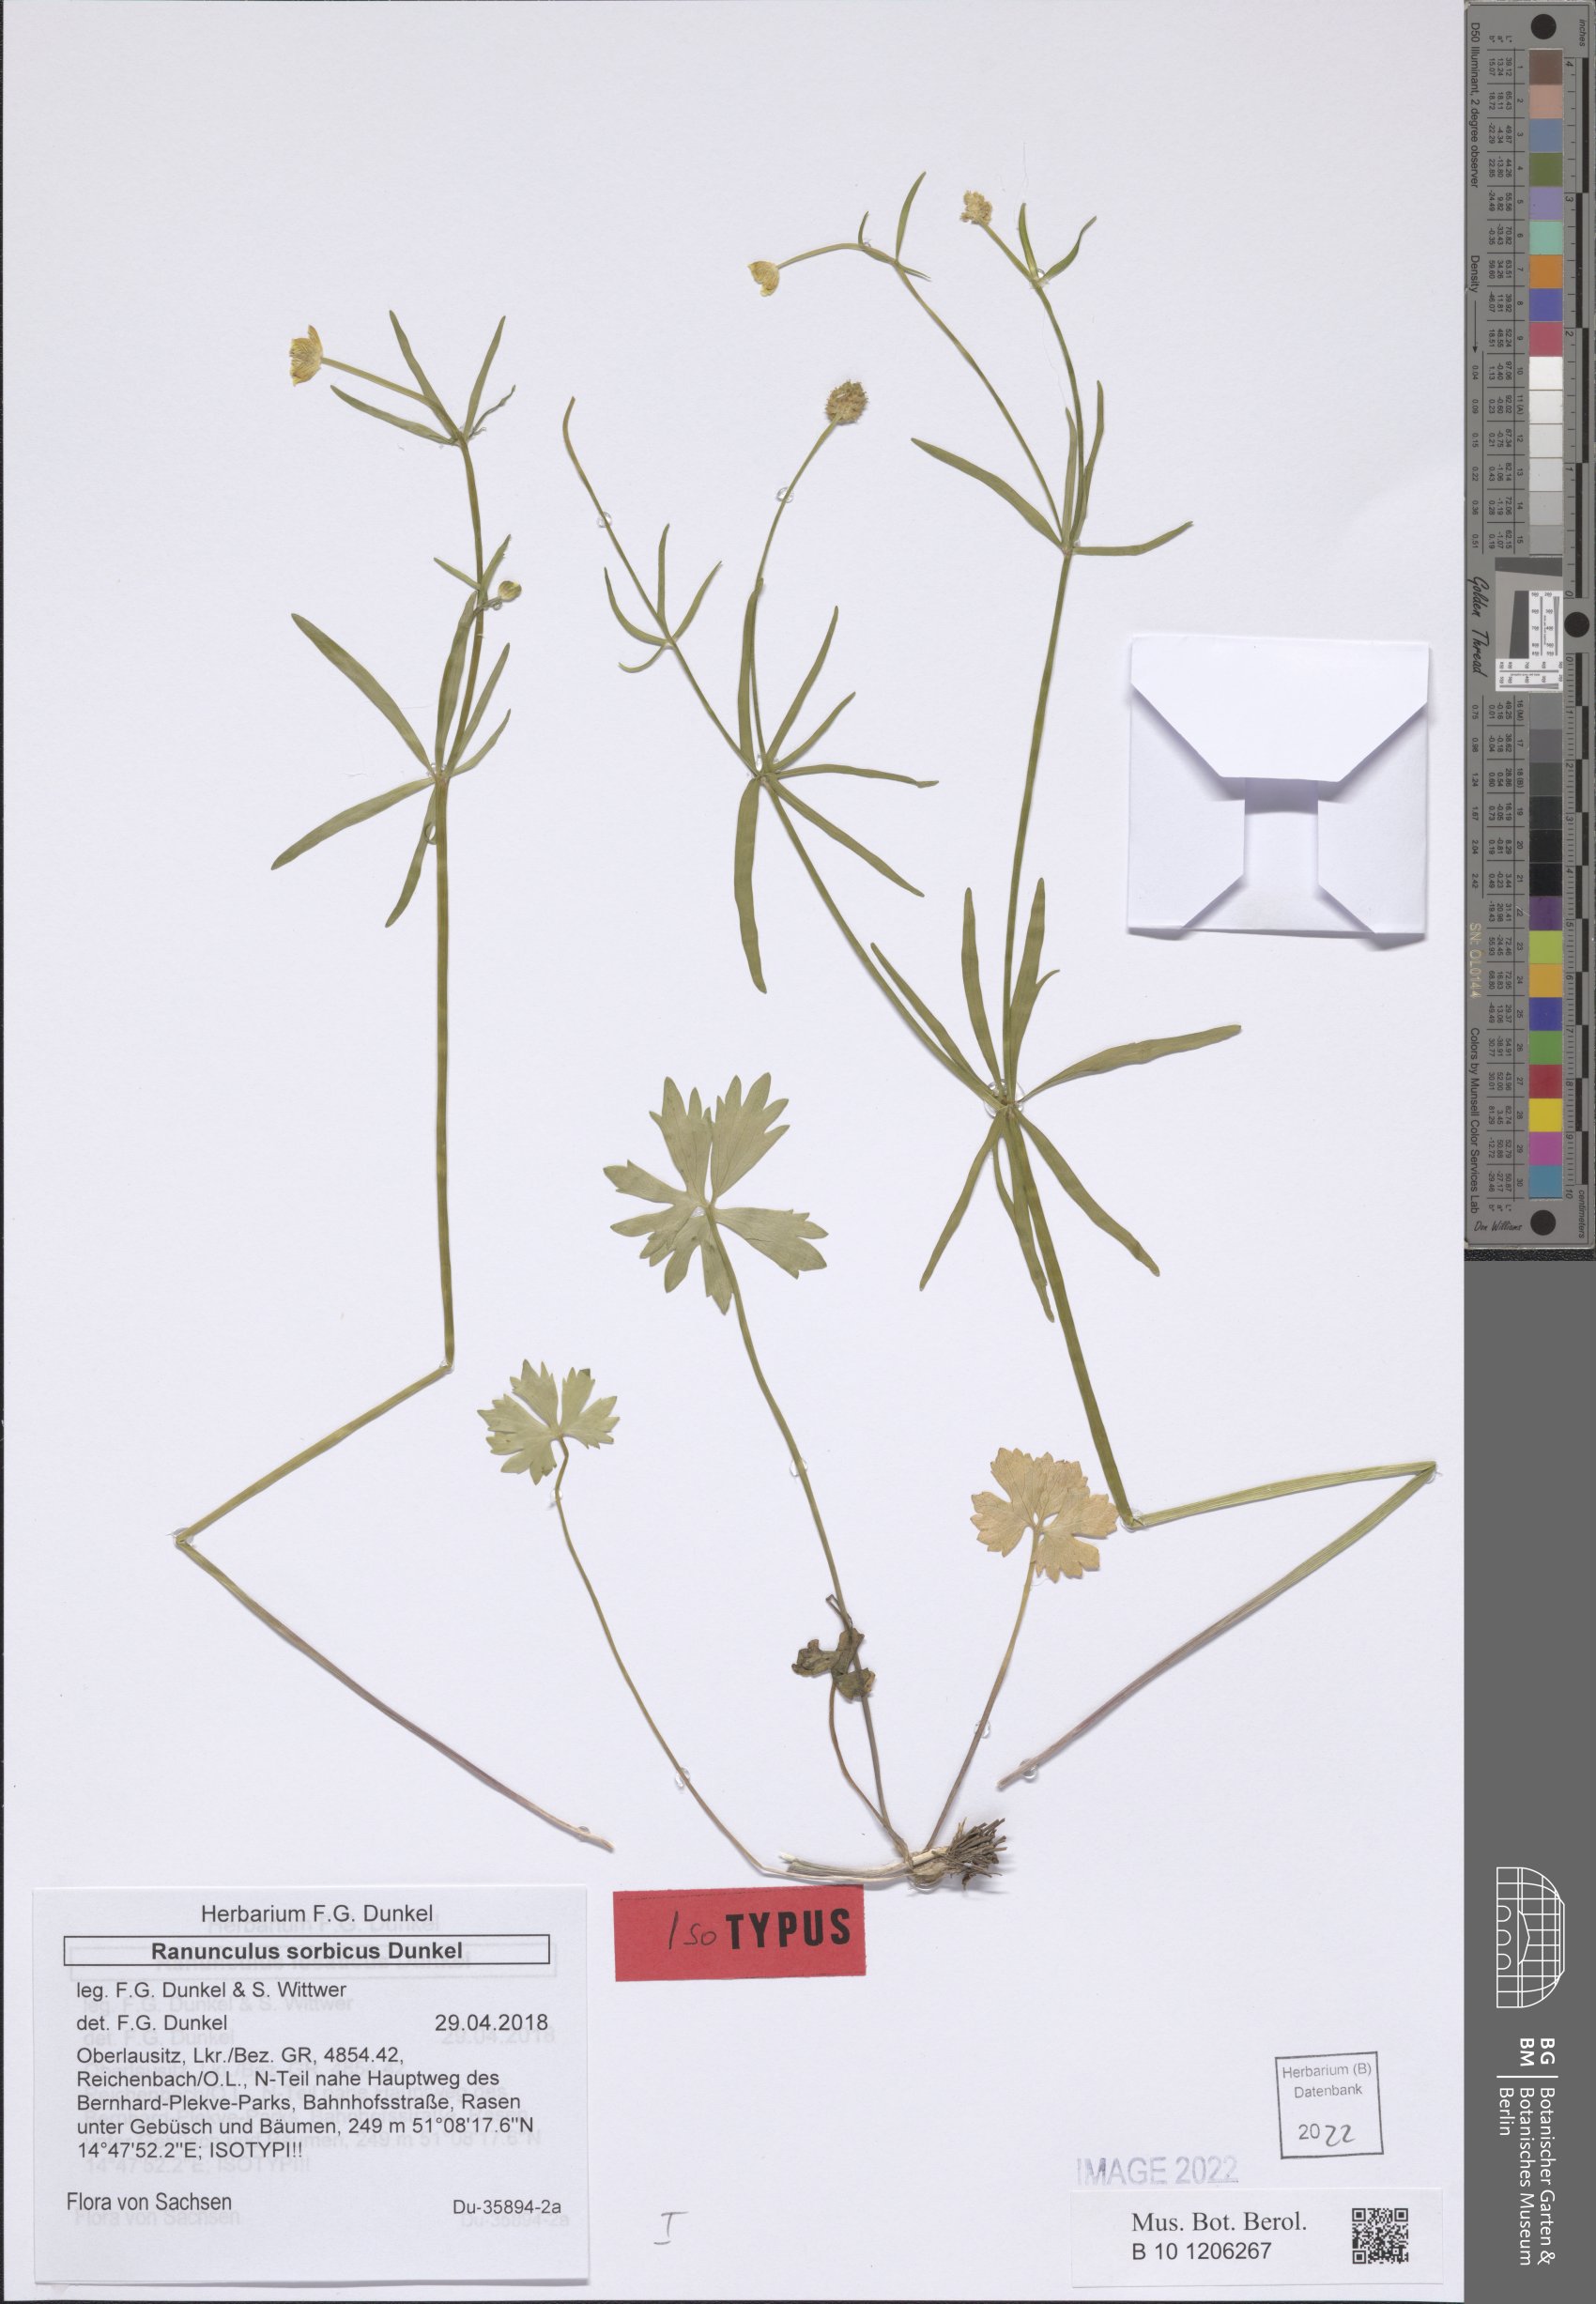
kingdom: Plantae
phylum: Tracheophyta
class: Magnoliopsida
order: Ranunculales
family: Ranunculaceae
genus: Ranunculus
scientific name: Ranunculus sorbicus
